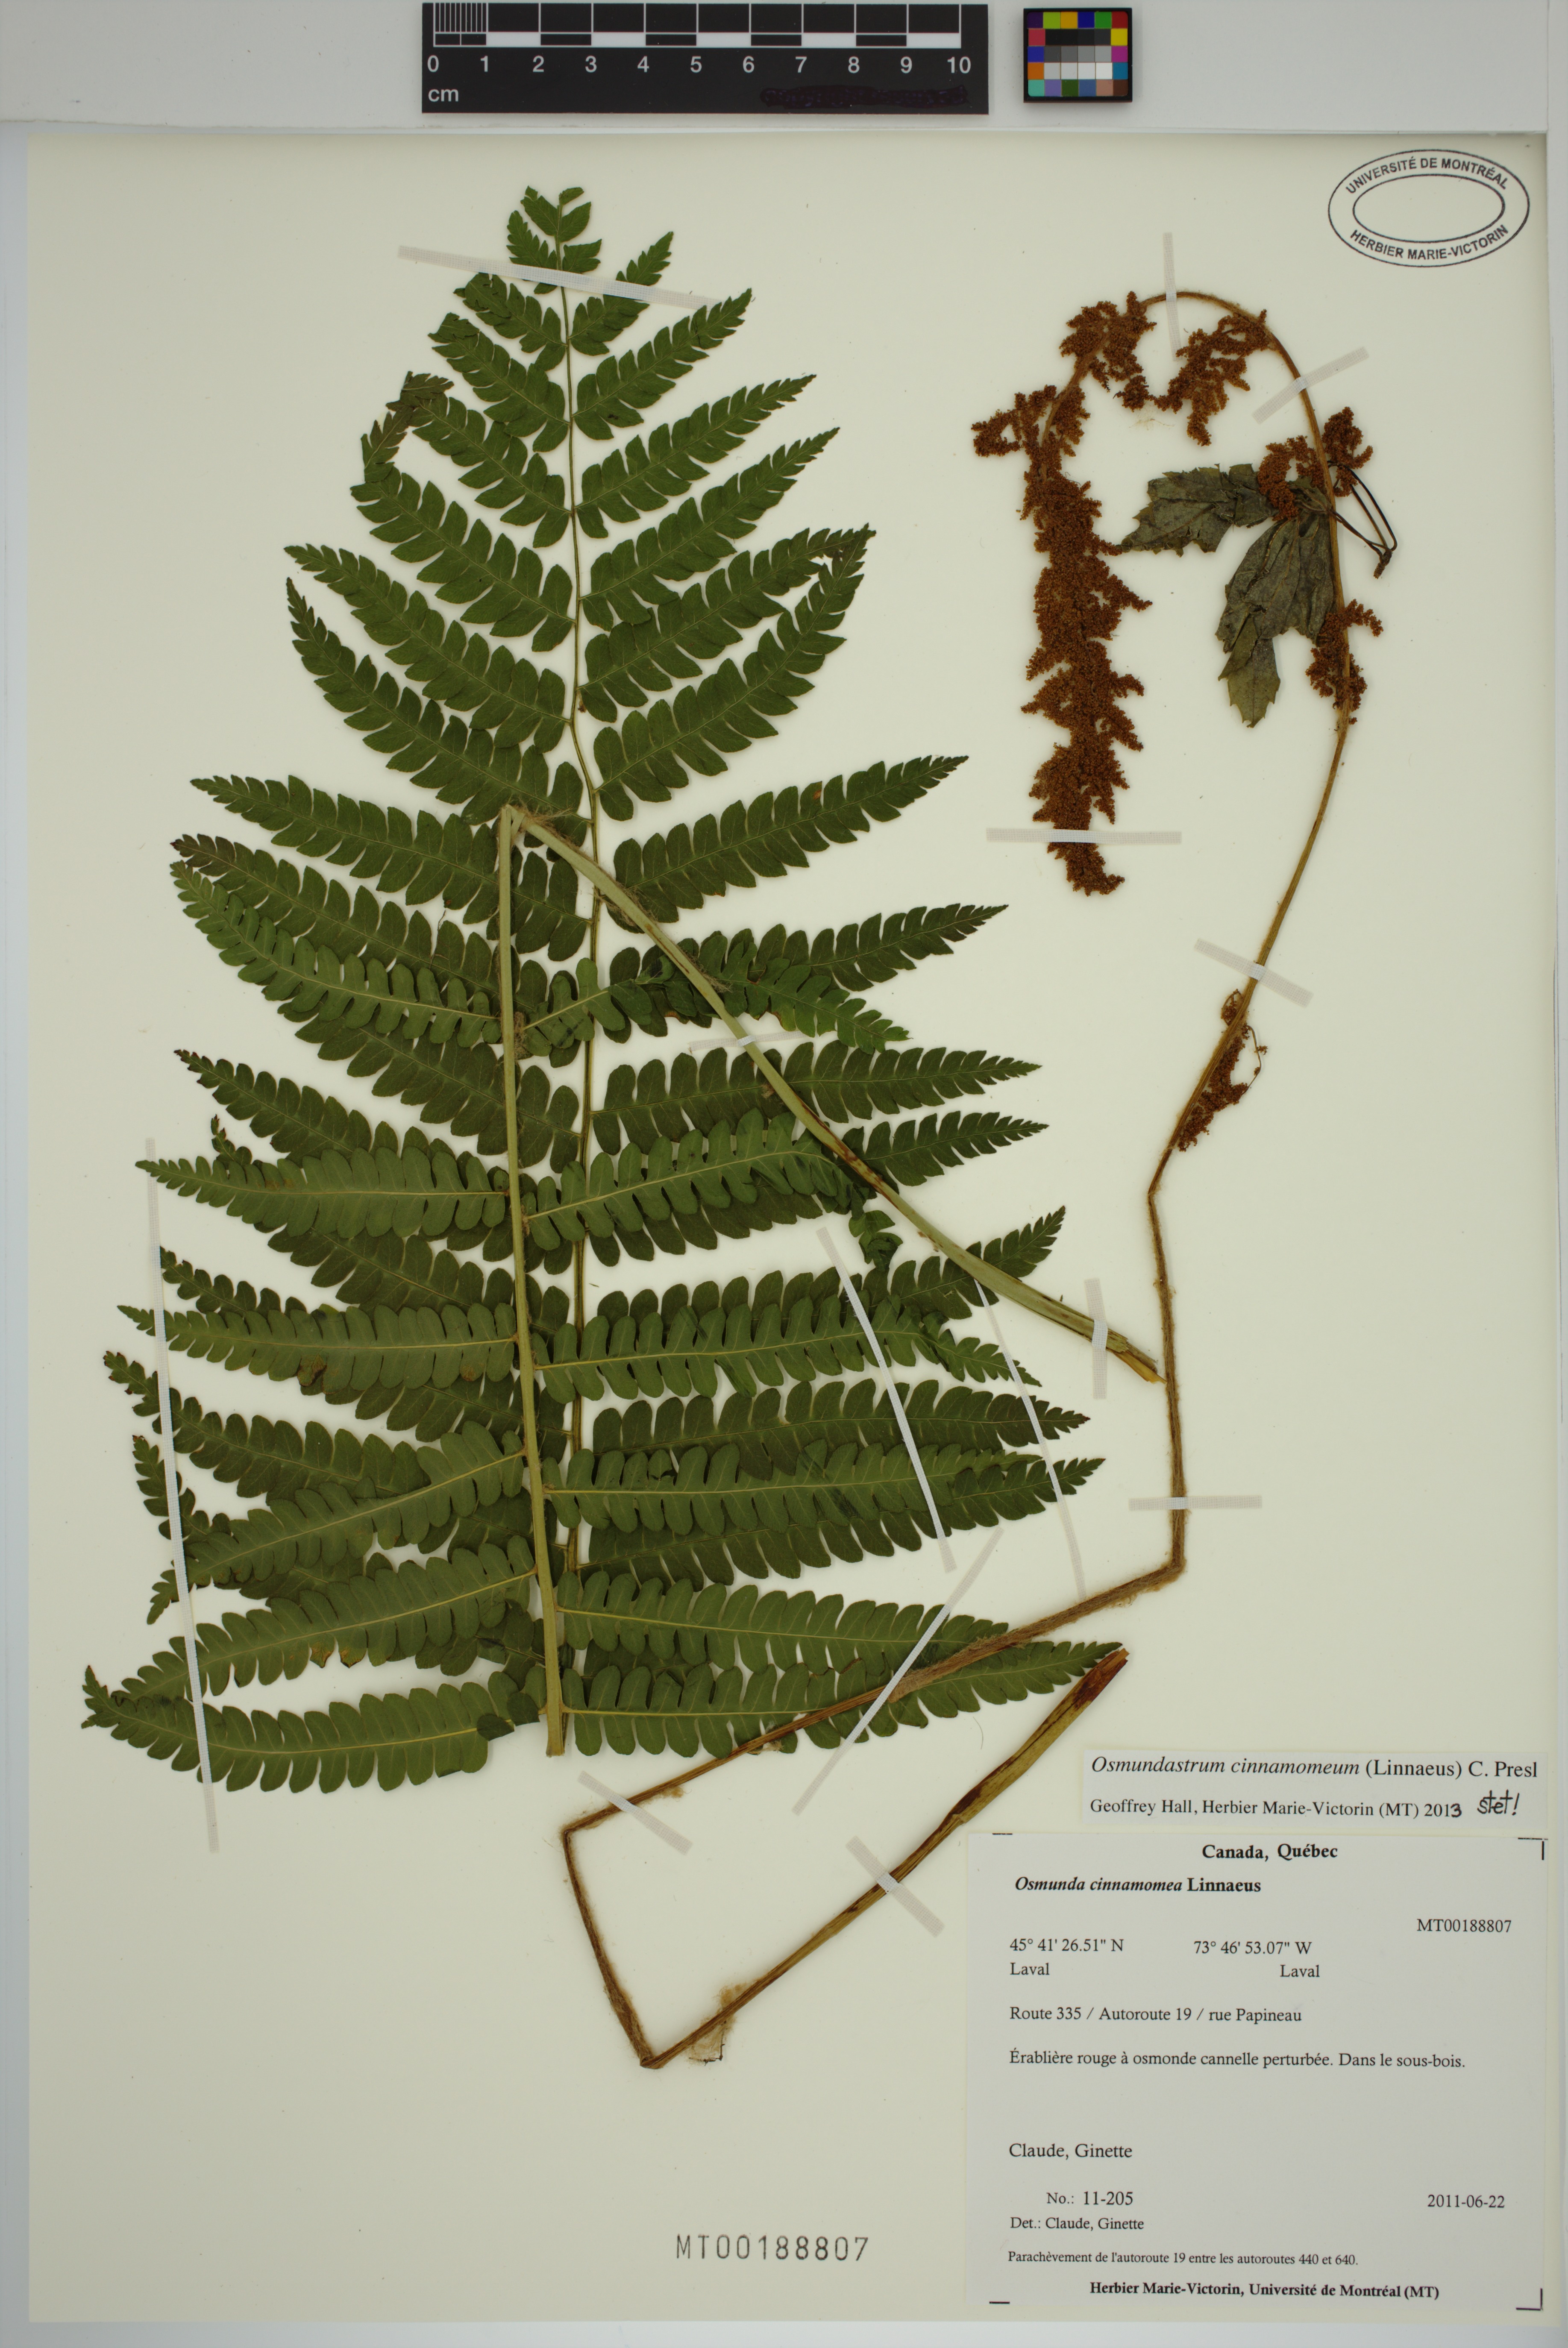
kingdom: Plantae
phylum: Tracheophyta
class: Polypodiopsida
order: Osmundales
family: Osmundaceae
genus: Osmundastrum
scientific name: Osmundastrum cinnamomeum
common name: Cinnamon fern
